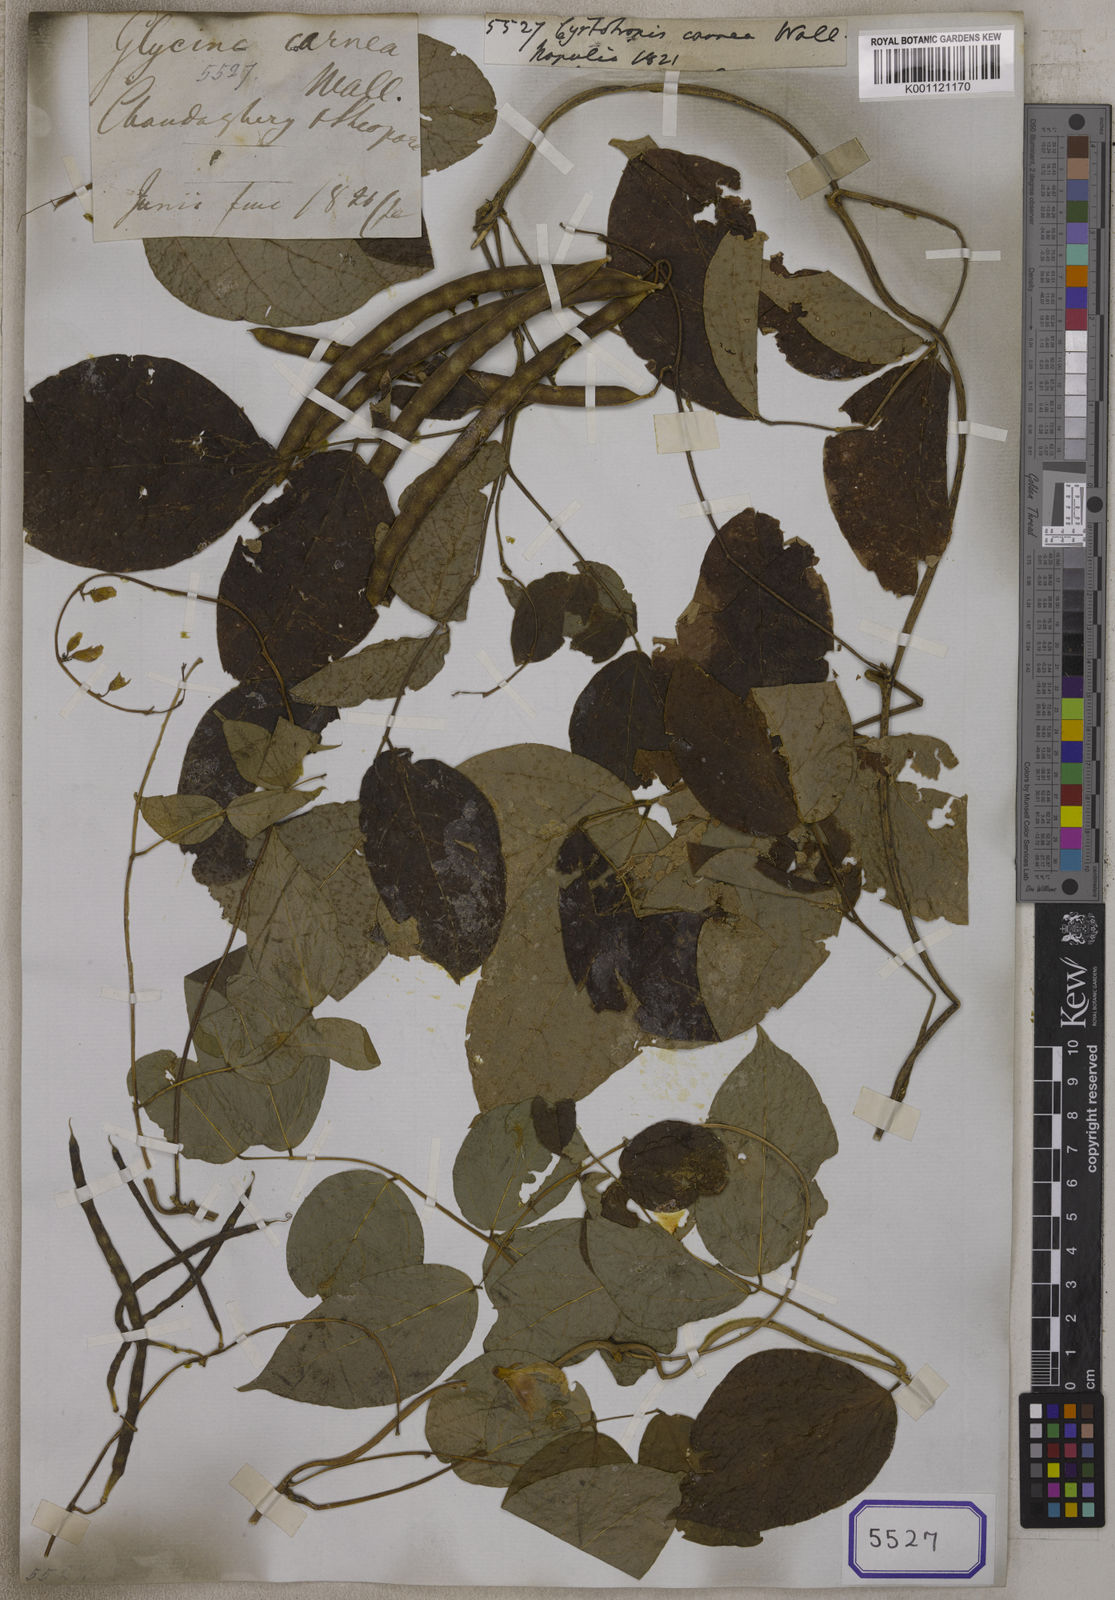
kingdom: Plantae
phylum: Tracheophyta
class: Magnoliopsida
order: Fabales
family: Fabaceae
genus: Apios
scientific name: Apios carnea
